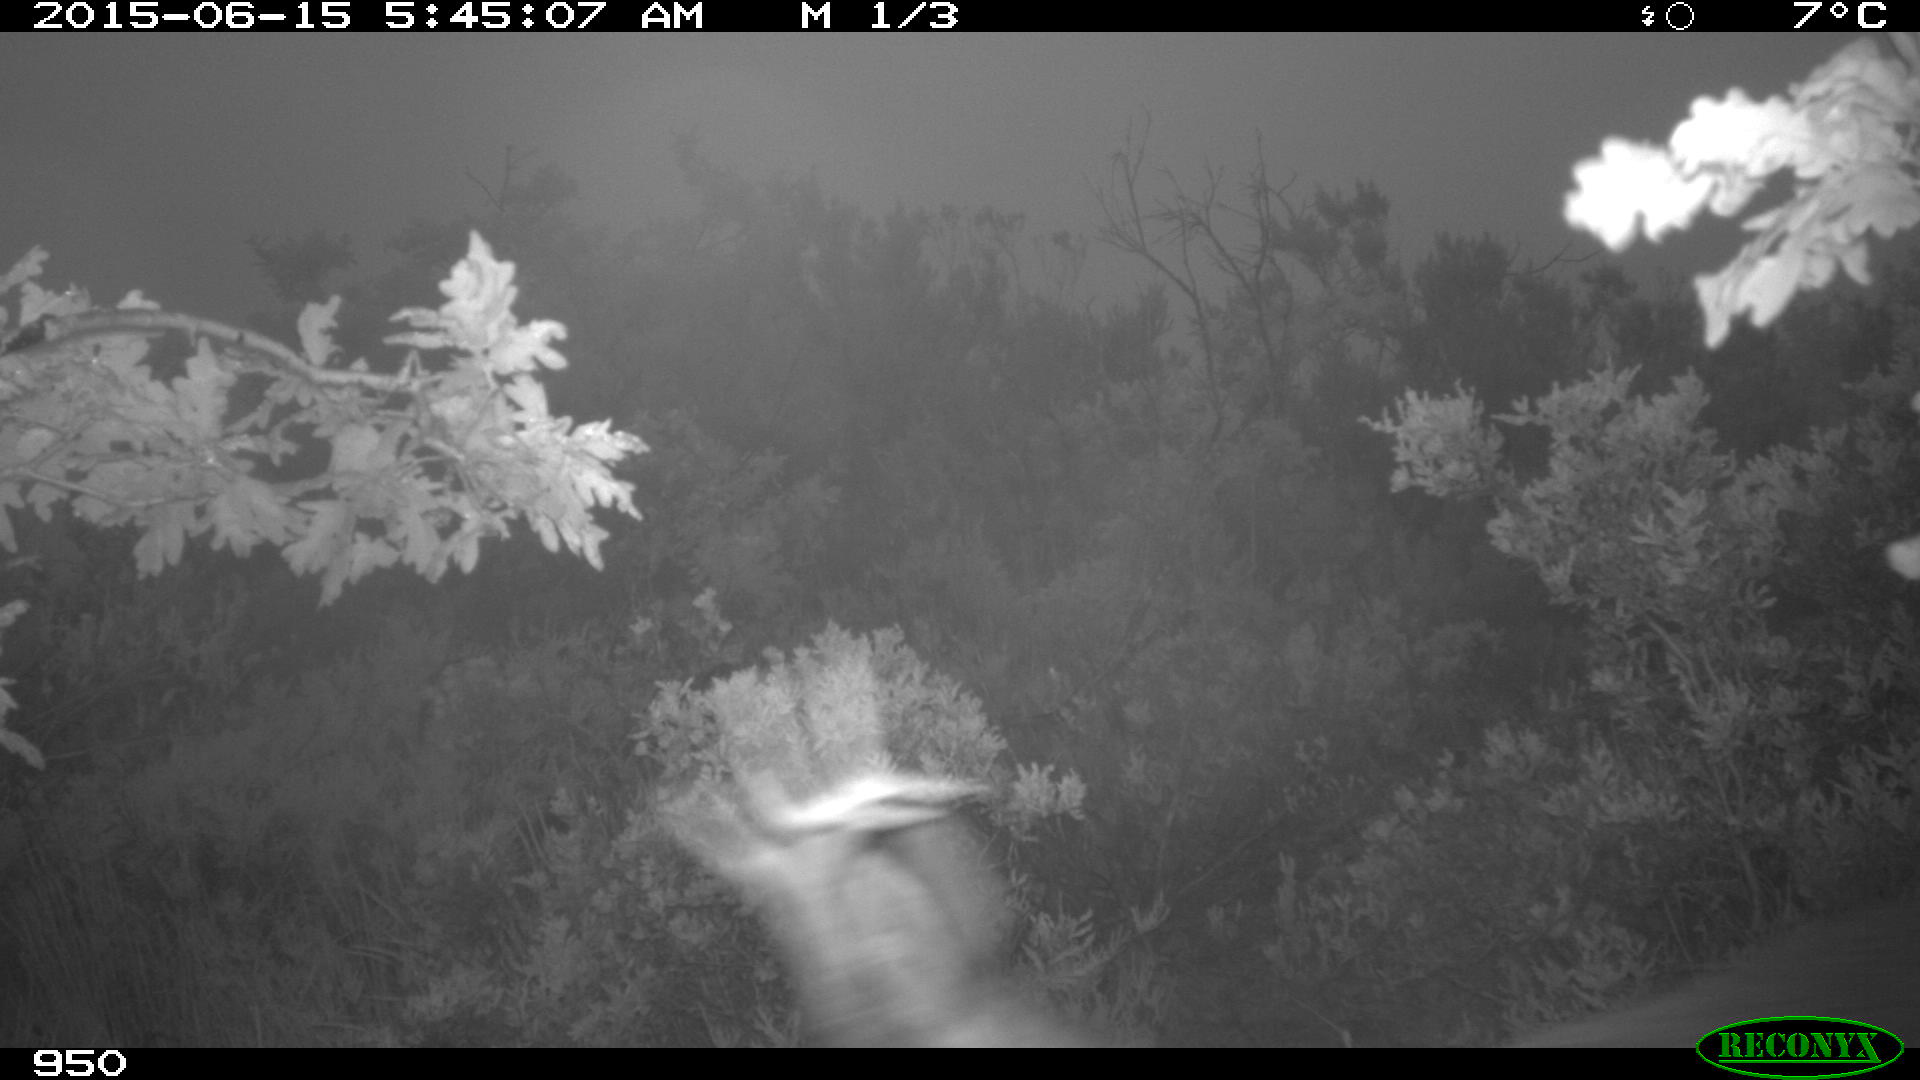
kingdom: Animalia
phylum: Chordata
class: Mammalia
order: Artiodactyla
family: Cervidae
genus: Capreolus
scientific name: Capreolus capreolus
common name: Western roe deer
